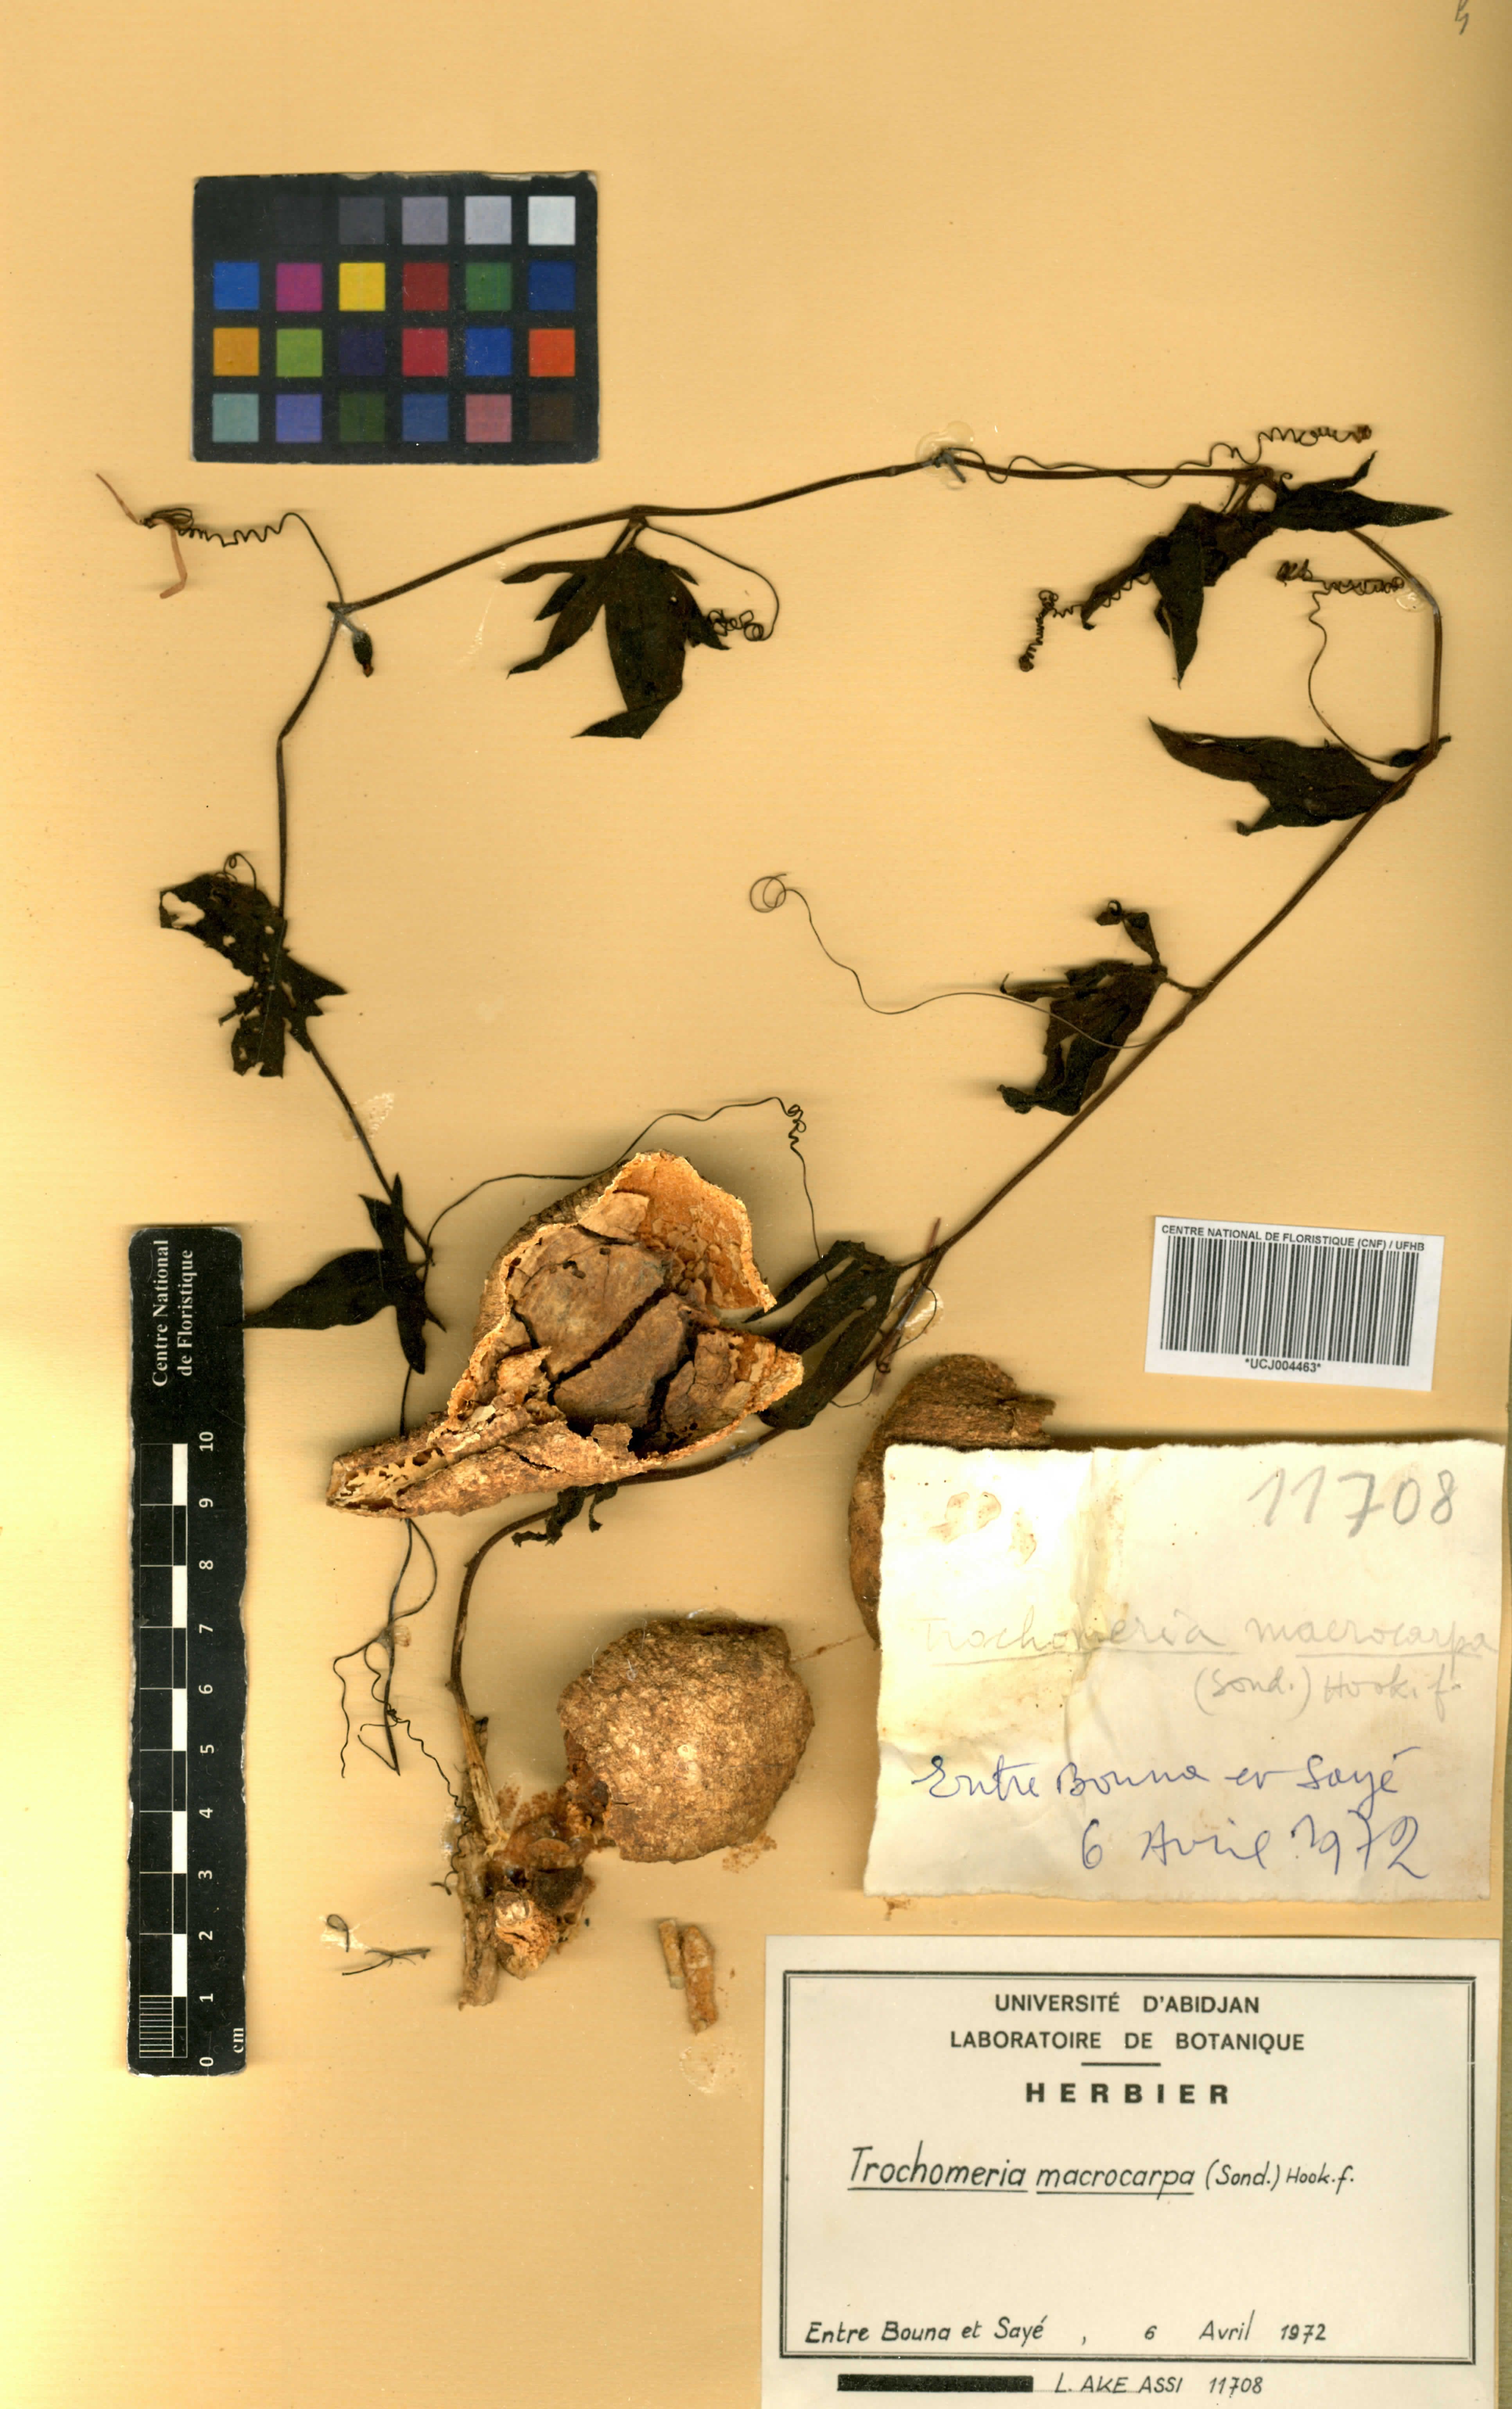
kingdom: Plantae
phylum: Tracheophyta
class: Magnoliopsida
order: Cucurbitales
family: Cucurbitaceae
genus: Trochomeria
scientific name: Trochomeria macrocarpa
